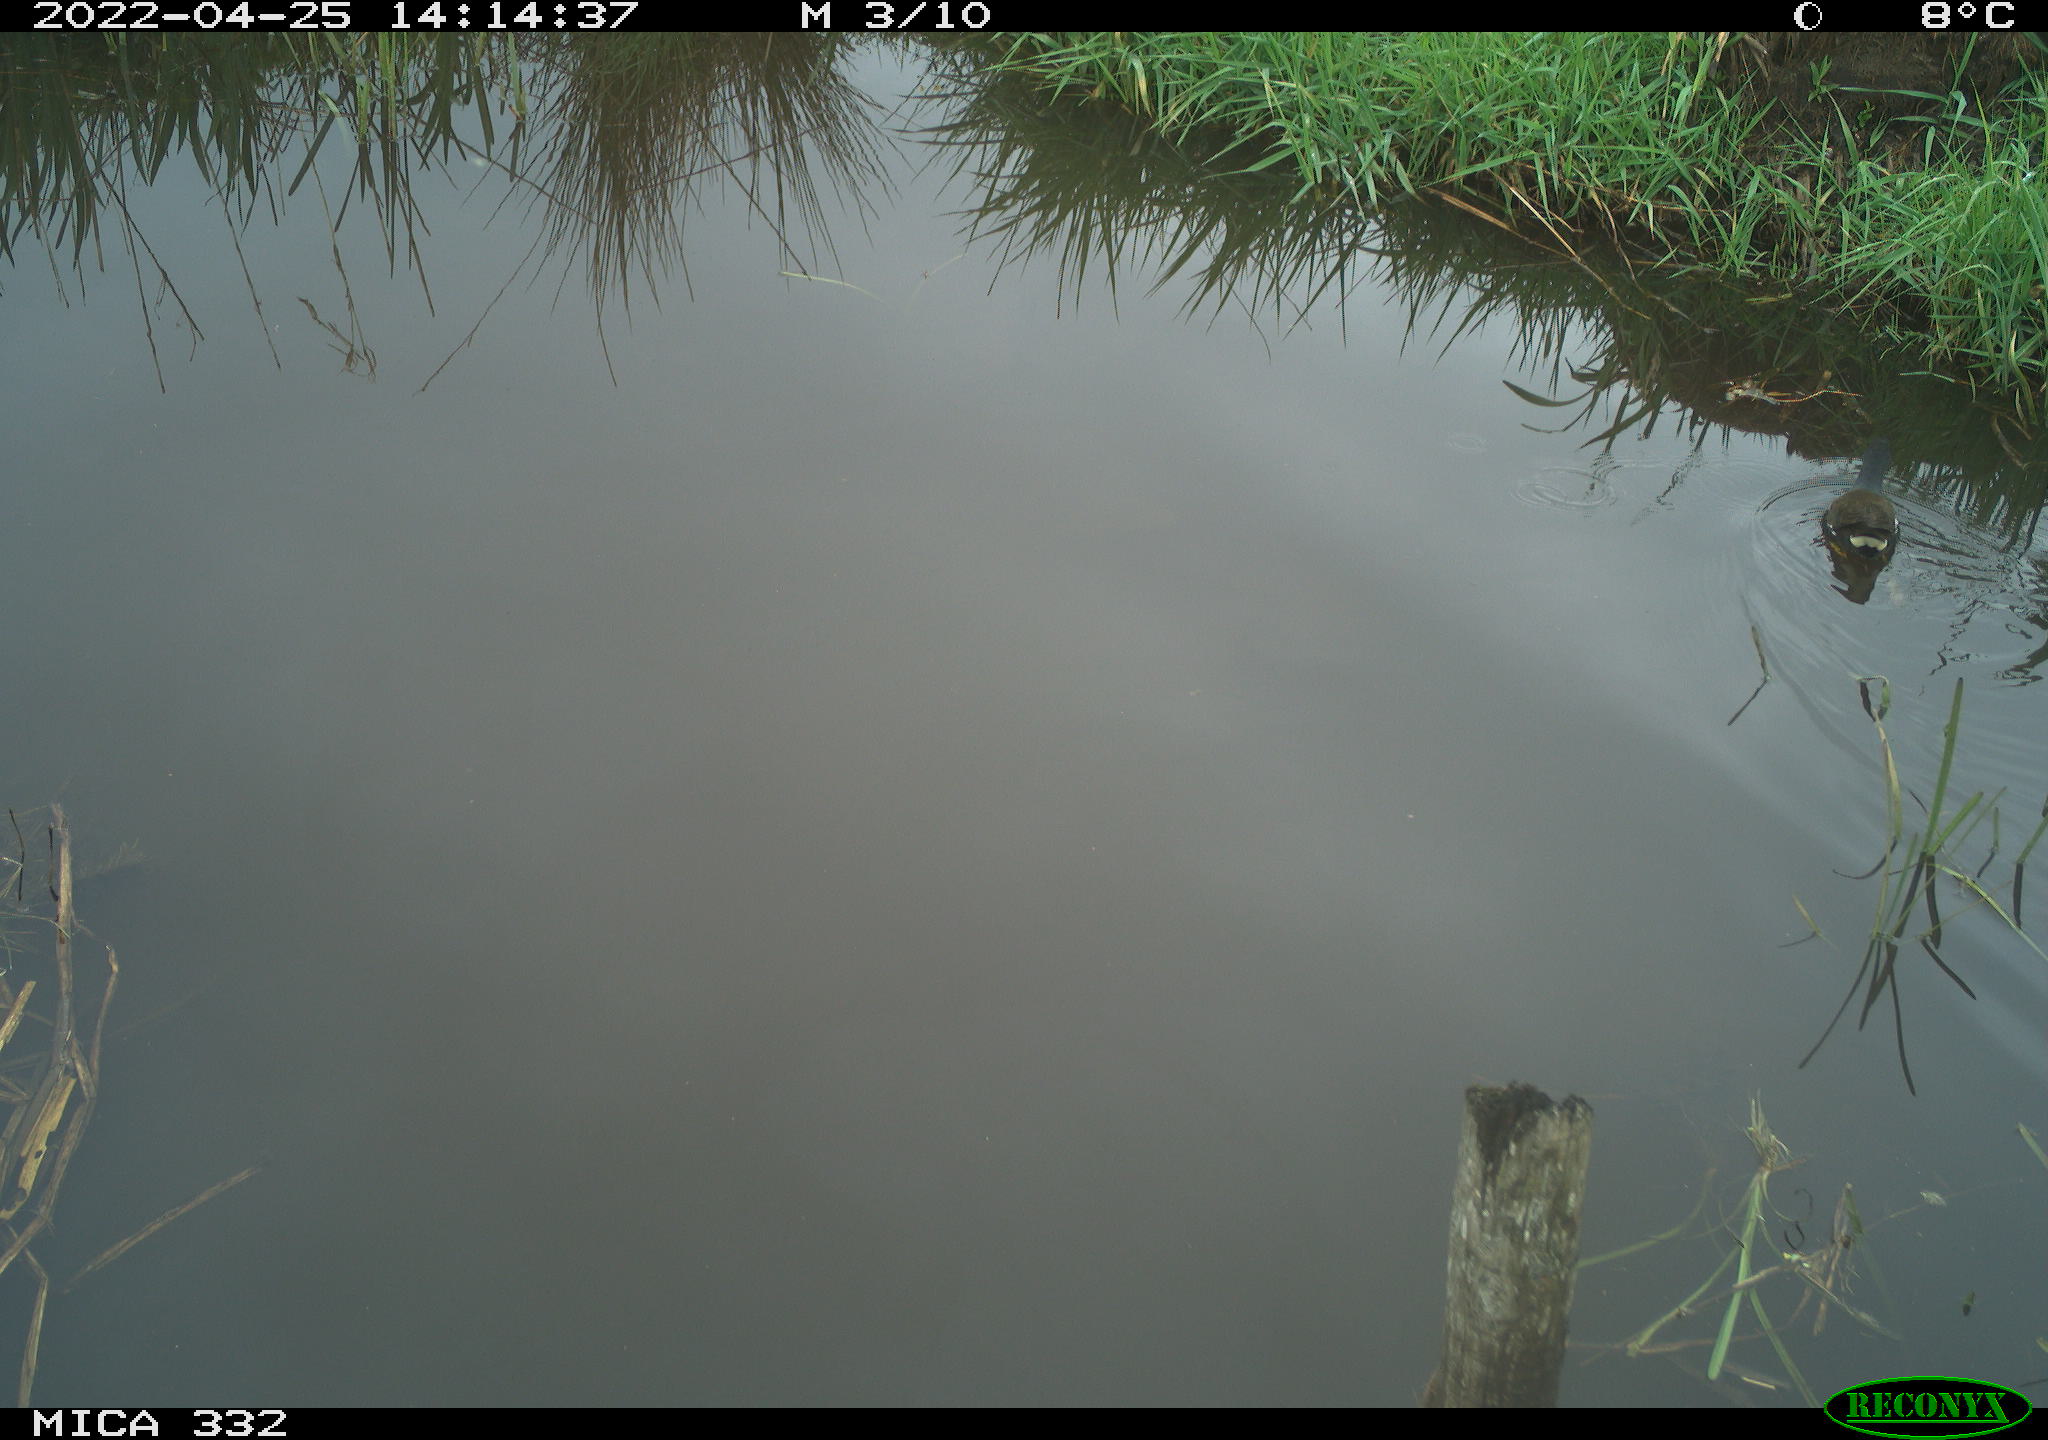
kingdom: Animalia
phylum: Chordata
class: Aves
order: Gruiformes
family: Rallidae
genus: Gallinula
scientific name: Gallinula chloropus
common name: Common moorhen
